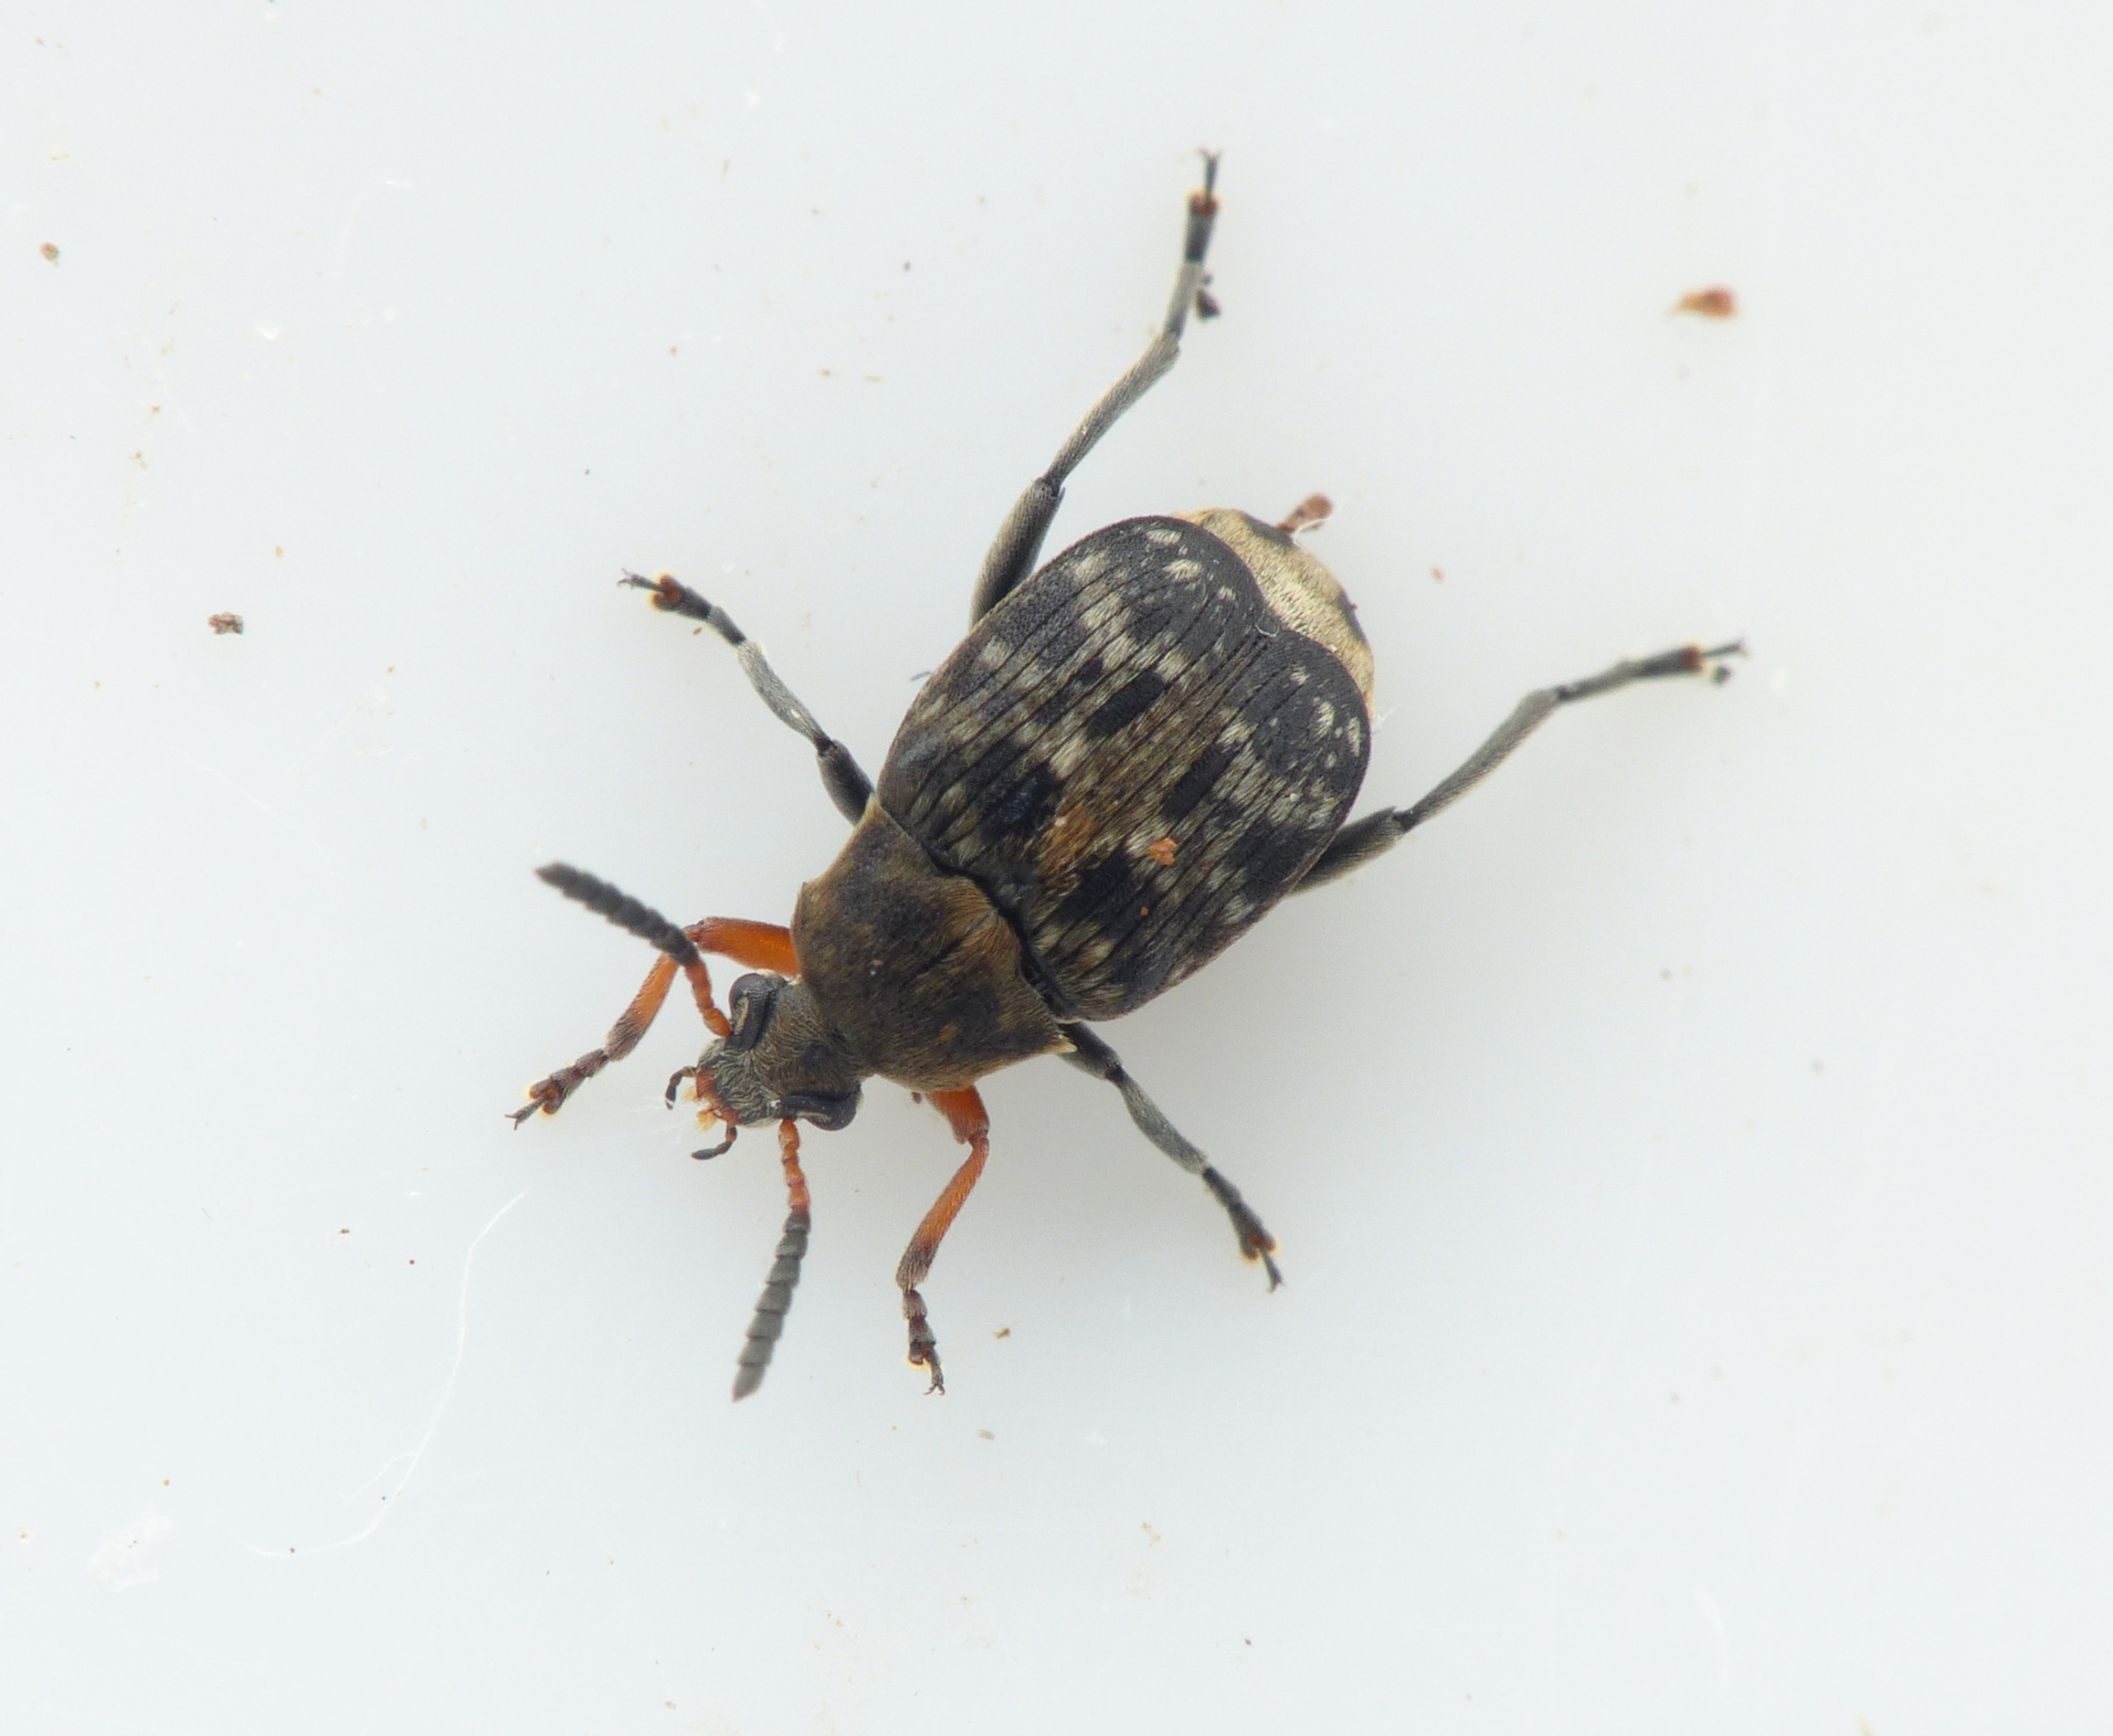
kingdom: Animalia
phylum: Arthropoda
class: Insecta
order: Coleoptera
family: Chrysomelidae
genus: Bruchus
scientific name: Bruchus affinis
